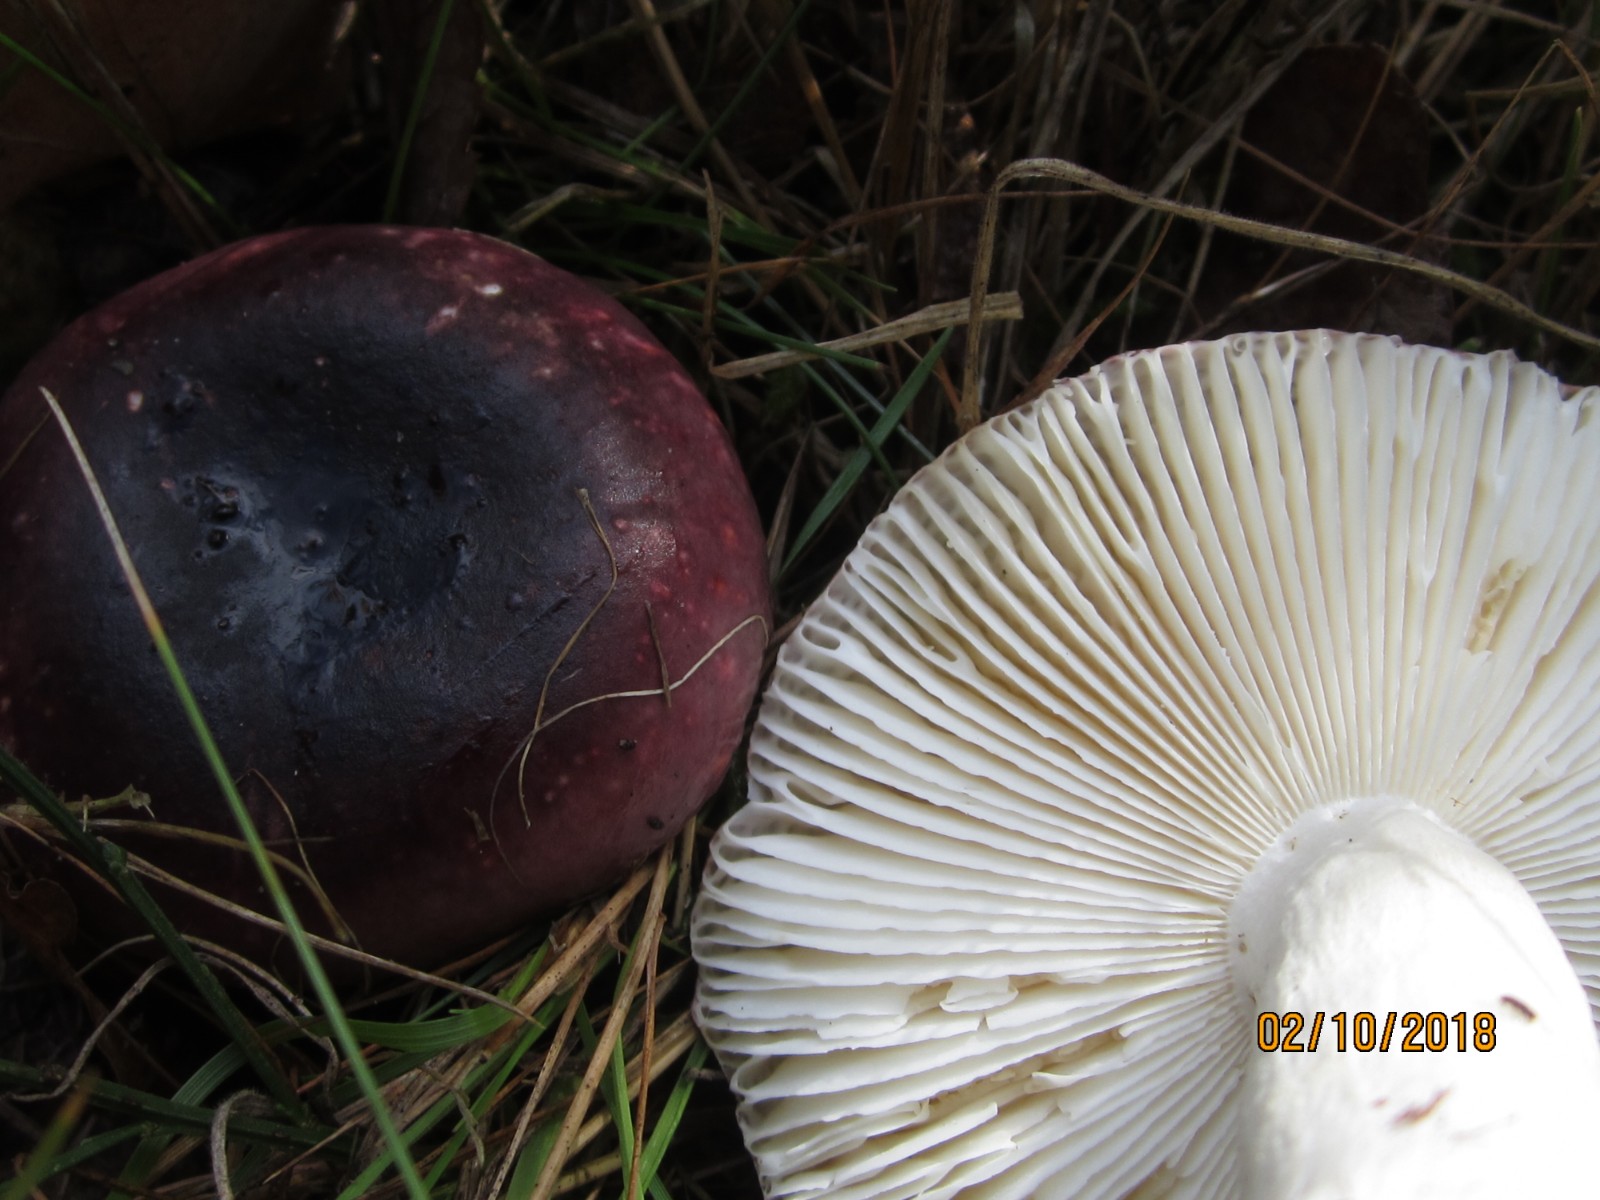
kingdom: Fungi
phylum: Basidiomycota
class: Agaricomycetes
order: Russulales
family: Russulaceae
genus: Russula
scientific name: Russula fragilis
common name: savbladet skørhat
